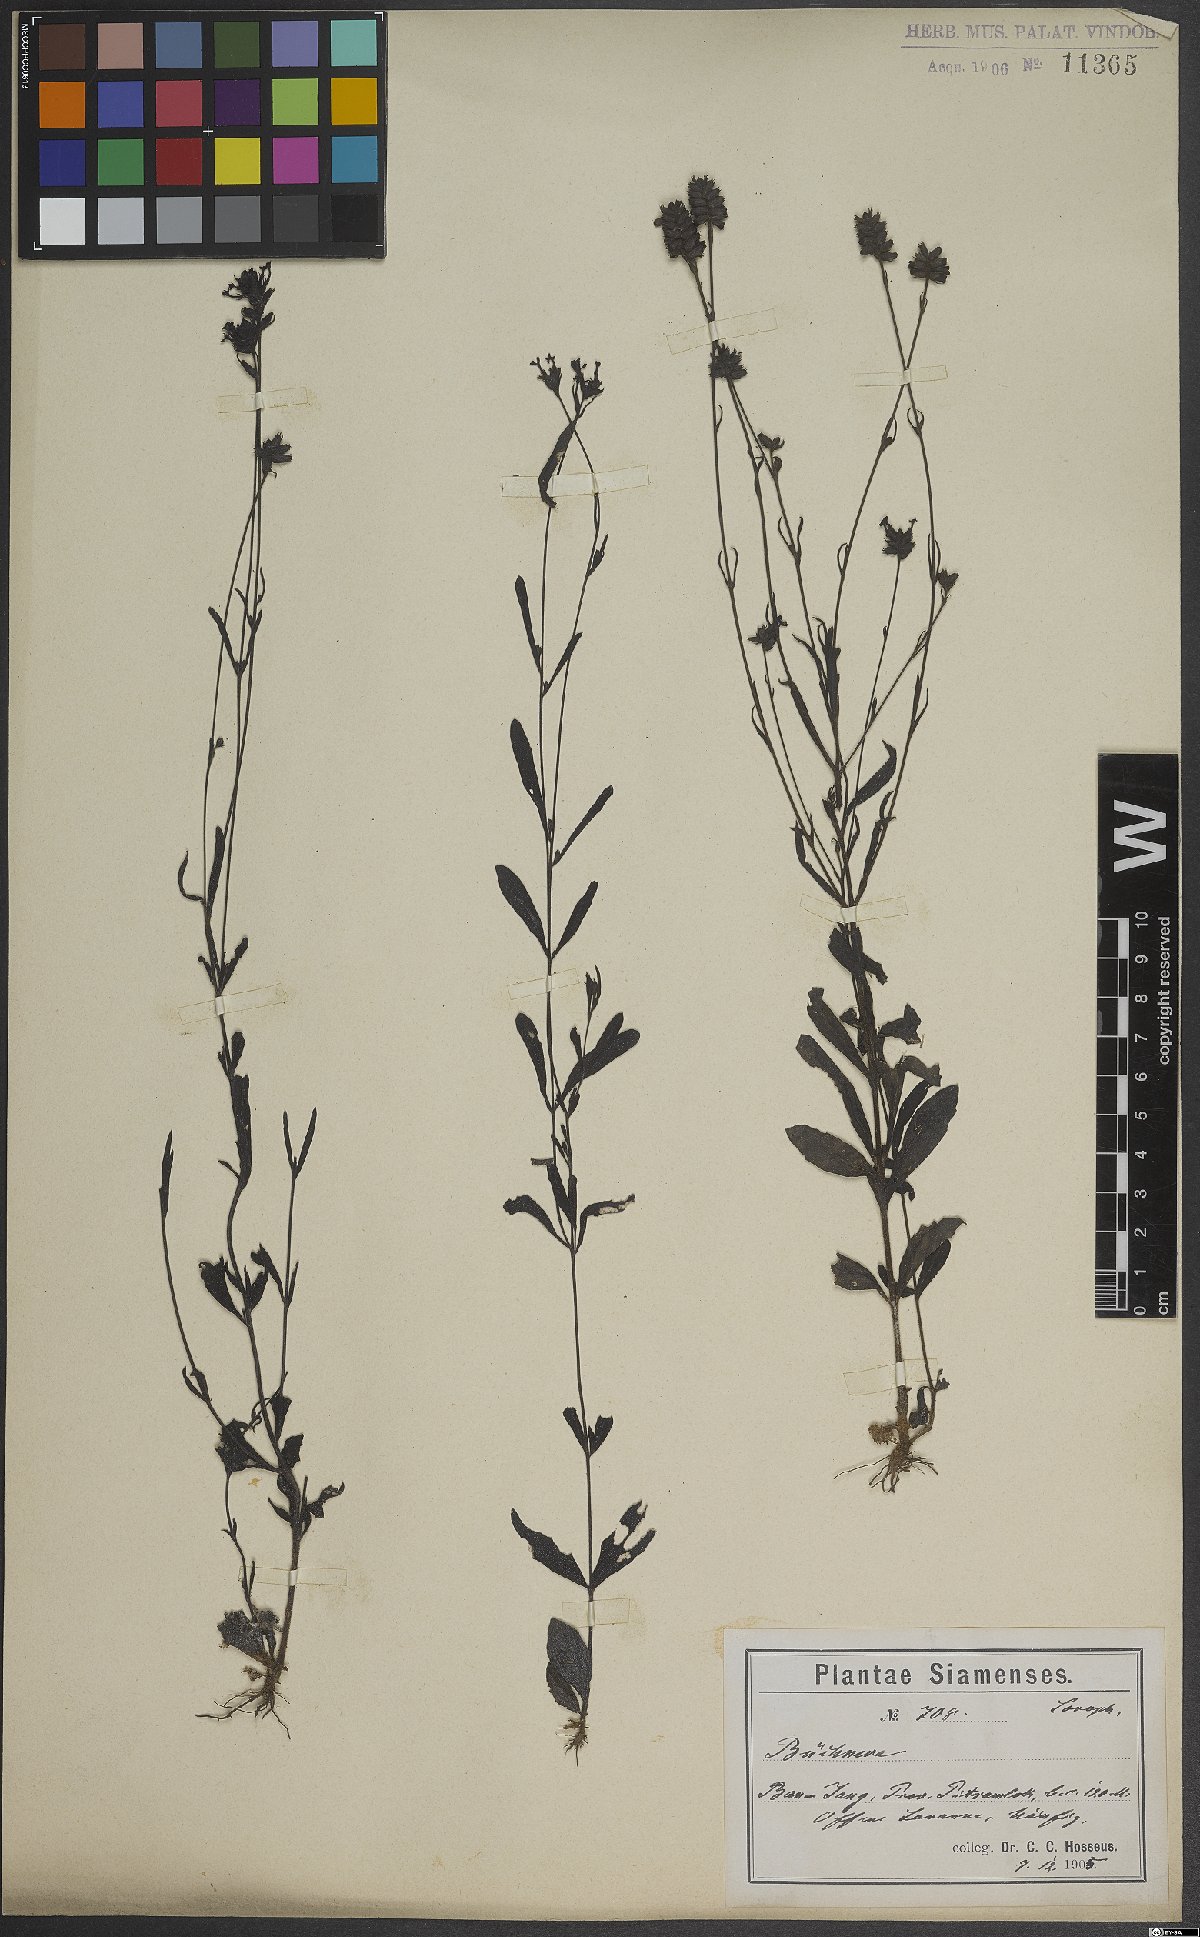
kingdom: Plantae
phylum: Tracheophyta
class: Magnoliopsida
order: Lamiales
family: Orobanchaceae
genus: Buchnera
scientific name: Buchnera
